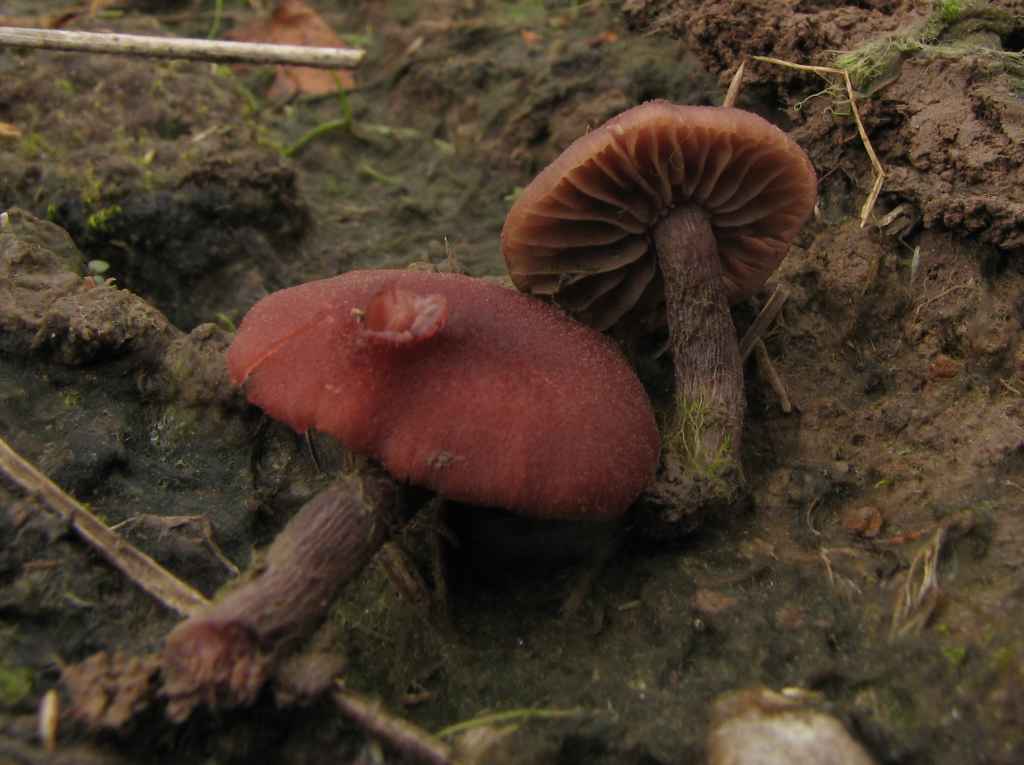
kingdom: Fungi
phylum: Basidiomycota
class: Agaricomycetes
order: Agaricales
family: Hydnangiaceae
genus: Laccaria
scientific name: Laccaria purpureobadia
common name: purpurbrun ametysthat
